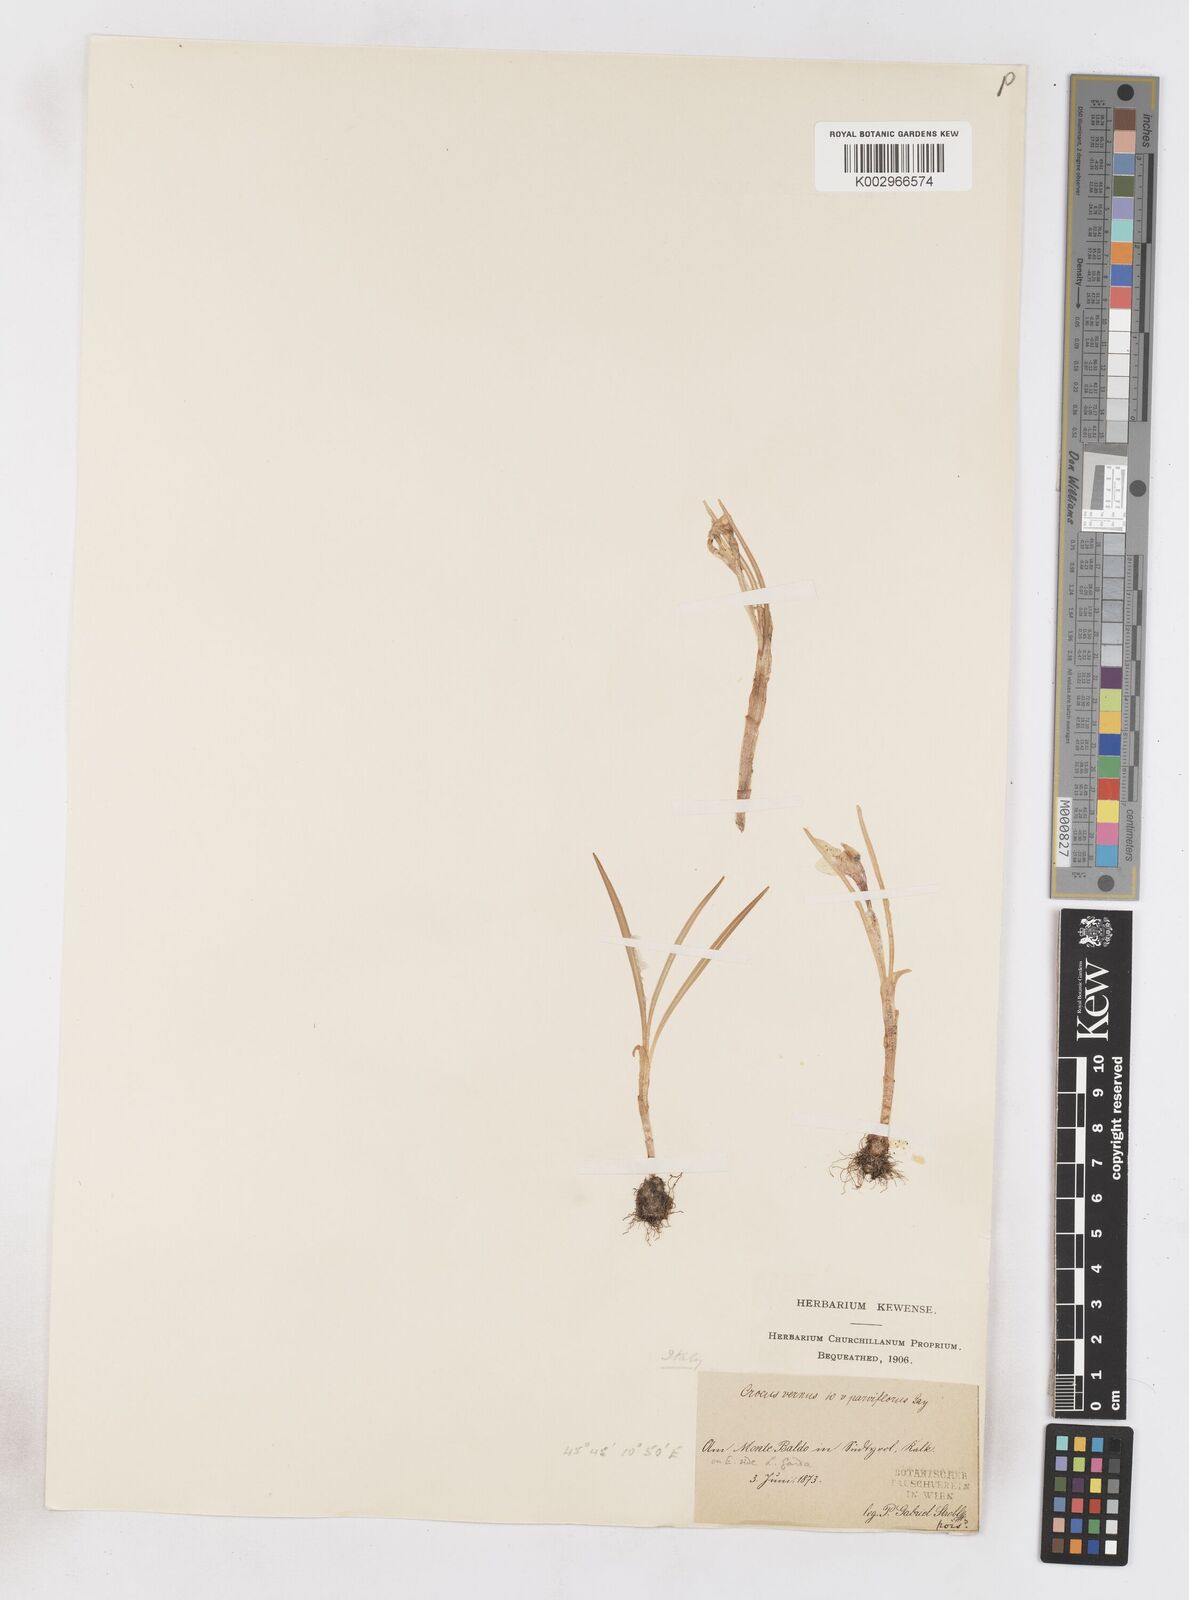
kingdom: Plantae
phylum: Tracheophyta
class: Liliopsida
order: Asparagales
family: Iridaceae
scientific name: Iridaceae
